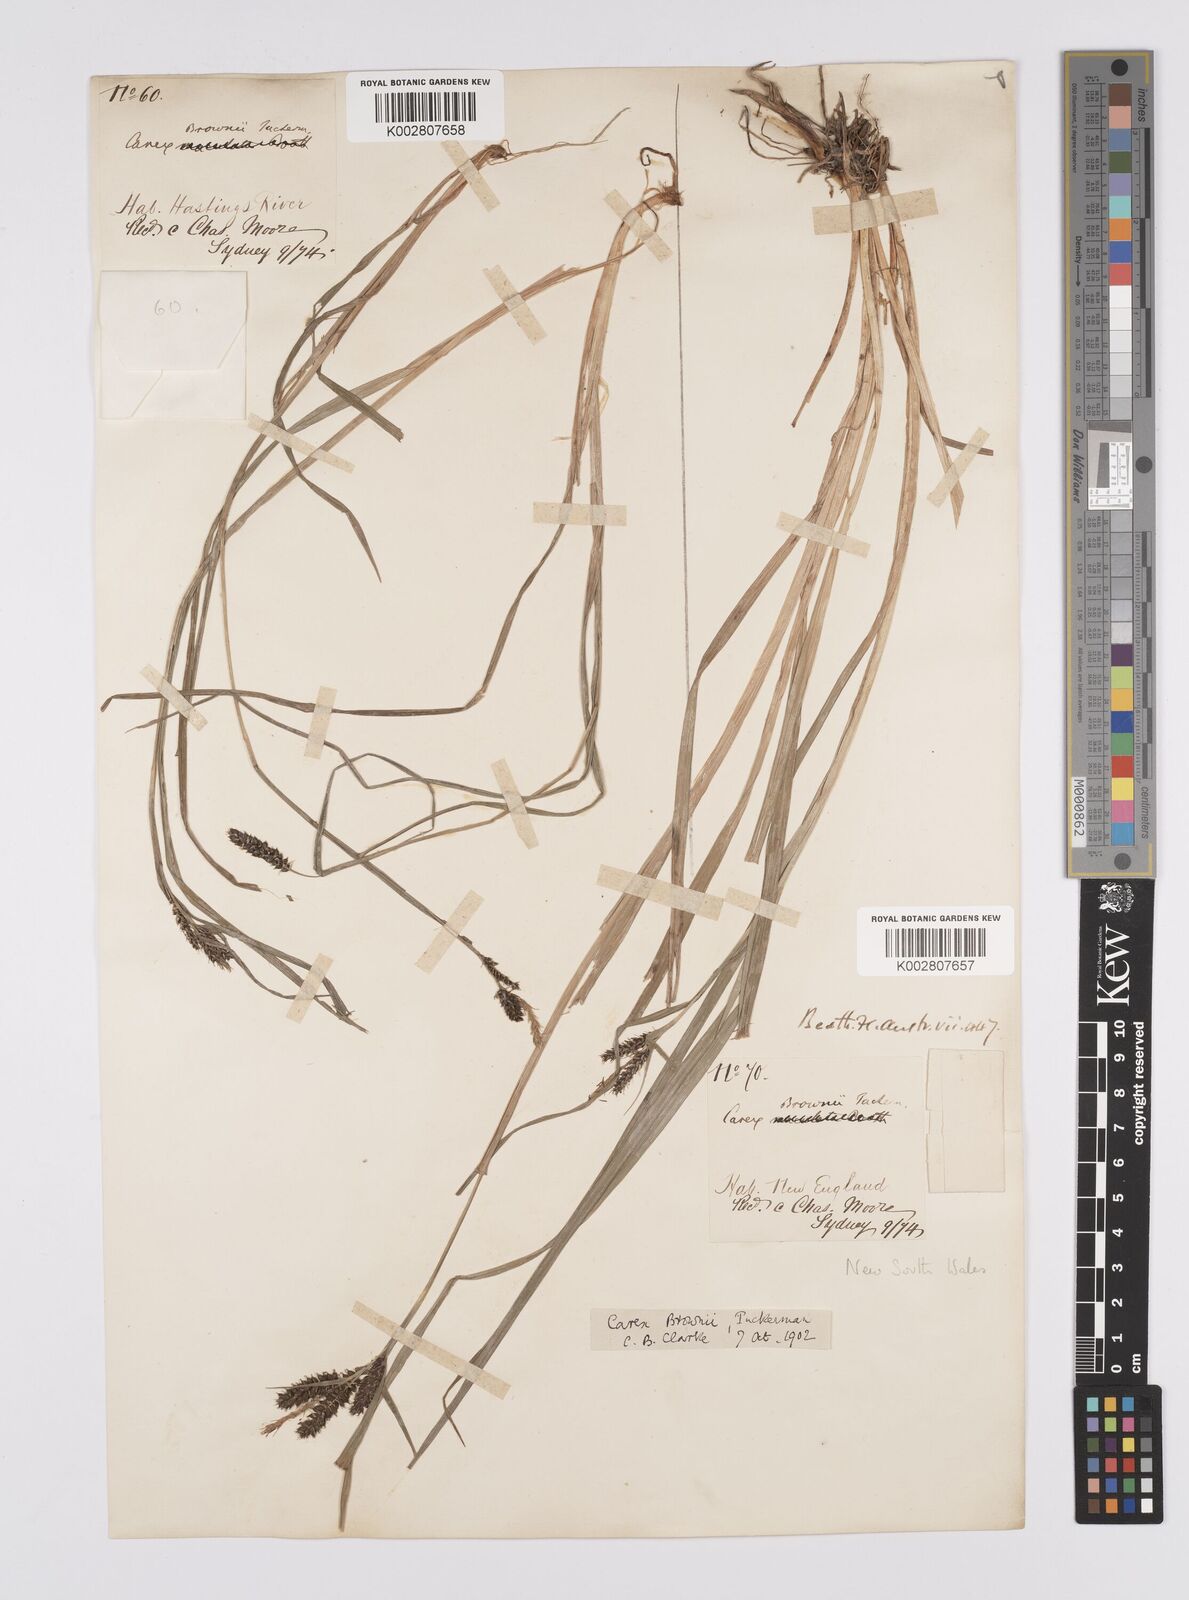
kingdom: Plantae
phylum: Tracheophyta
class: Liliopsida
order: Poales
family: Cyperaceae
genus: Carex
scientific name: Carex longebrachiata
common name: Drooping sedge
